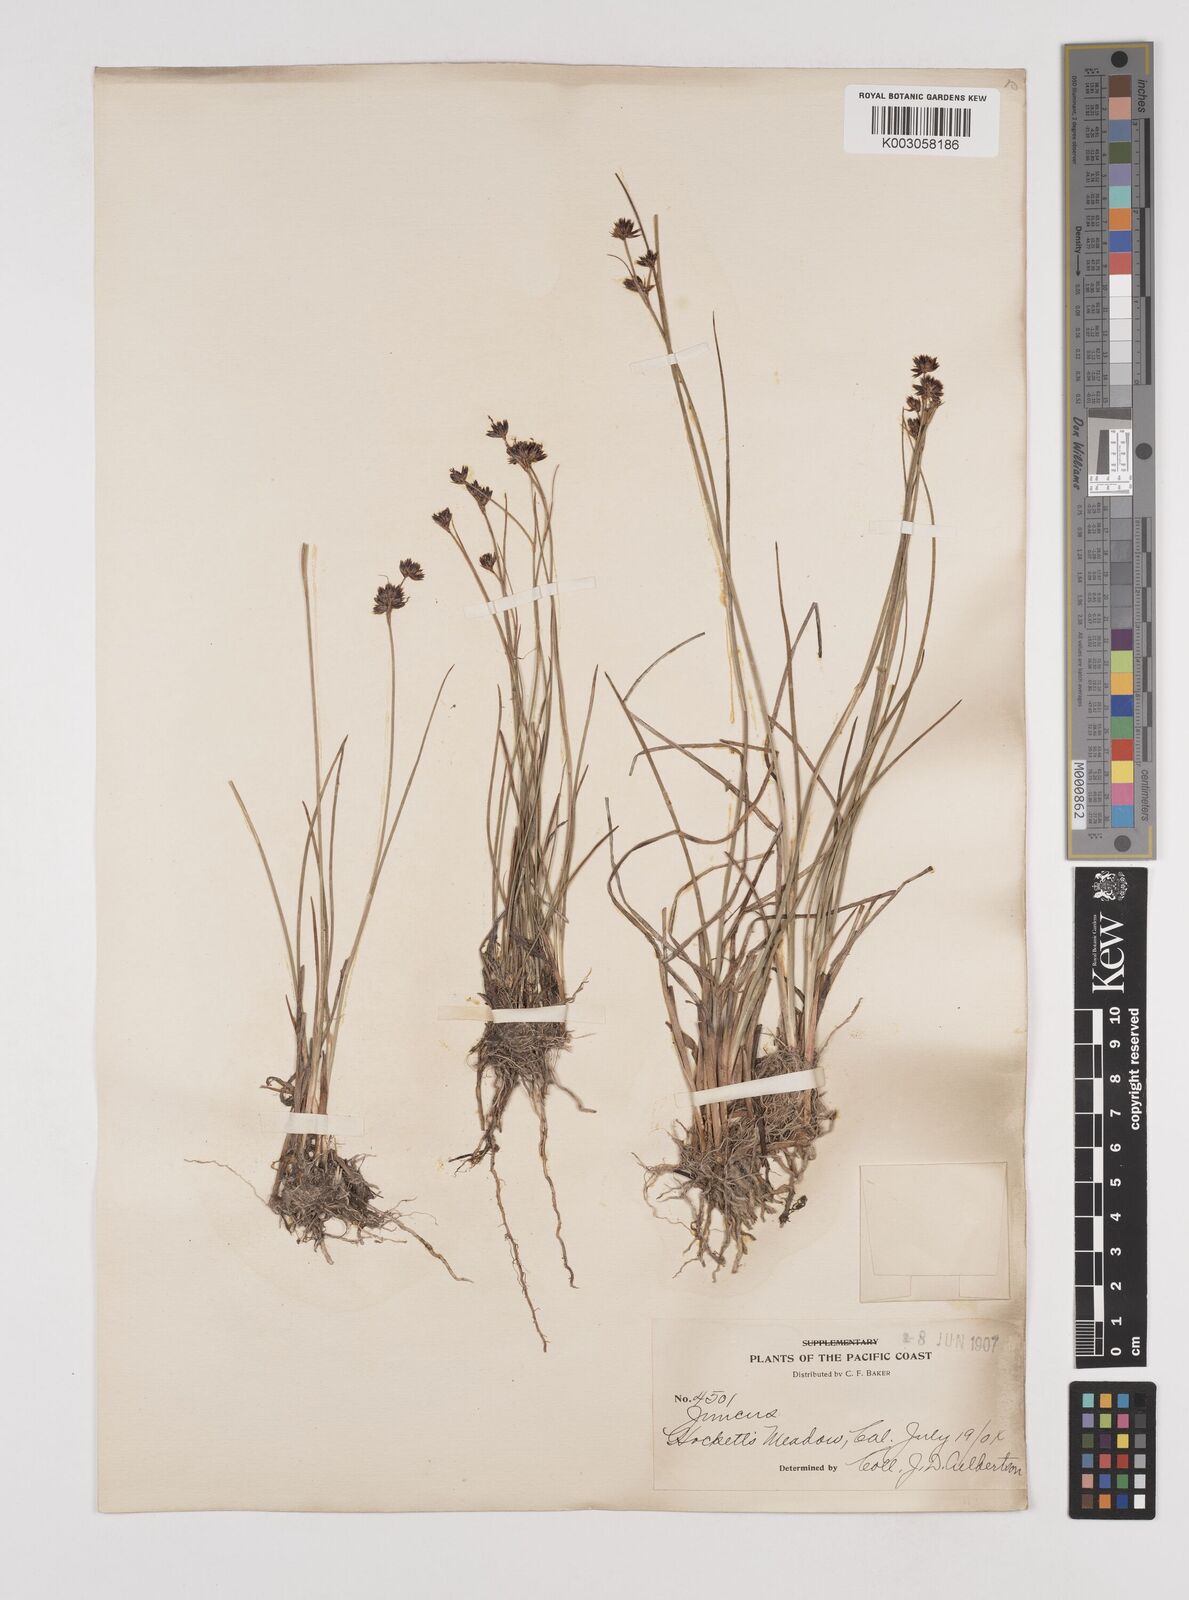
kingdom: Plantae
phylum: Tracheophyta
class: Liliopsida
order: Poales
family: Juncaceae
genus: Juncus
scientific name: Juncus
